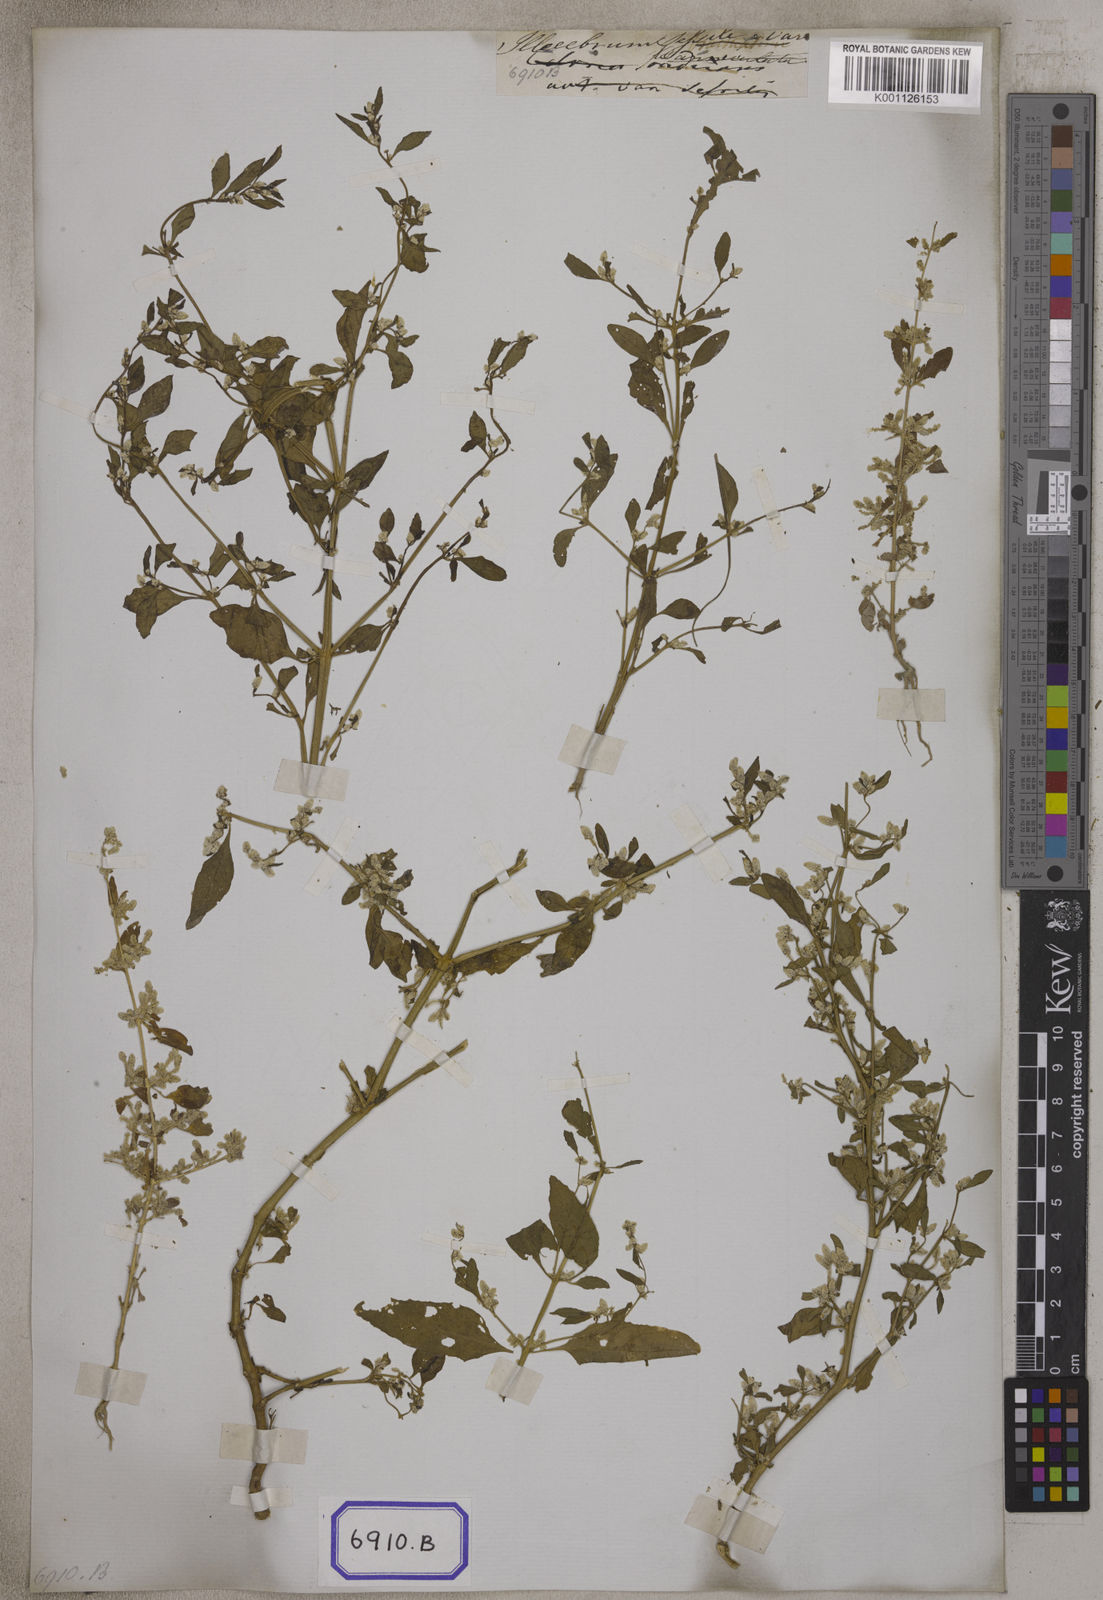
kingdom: Plantae
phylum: Tracheophyta
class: Magnoliopsida
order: Caryophyllales
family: Amaranthaceae
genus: Nothosaerva
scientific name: Nothosaerva brachiata
